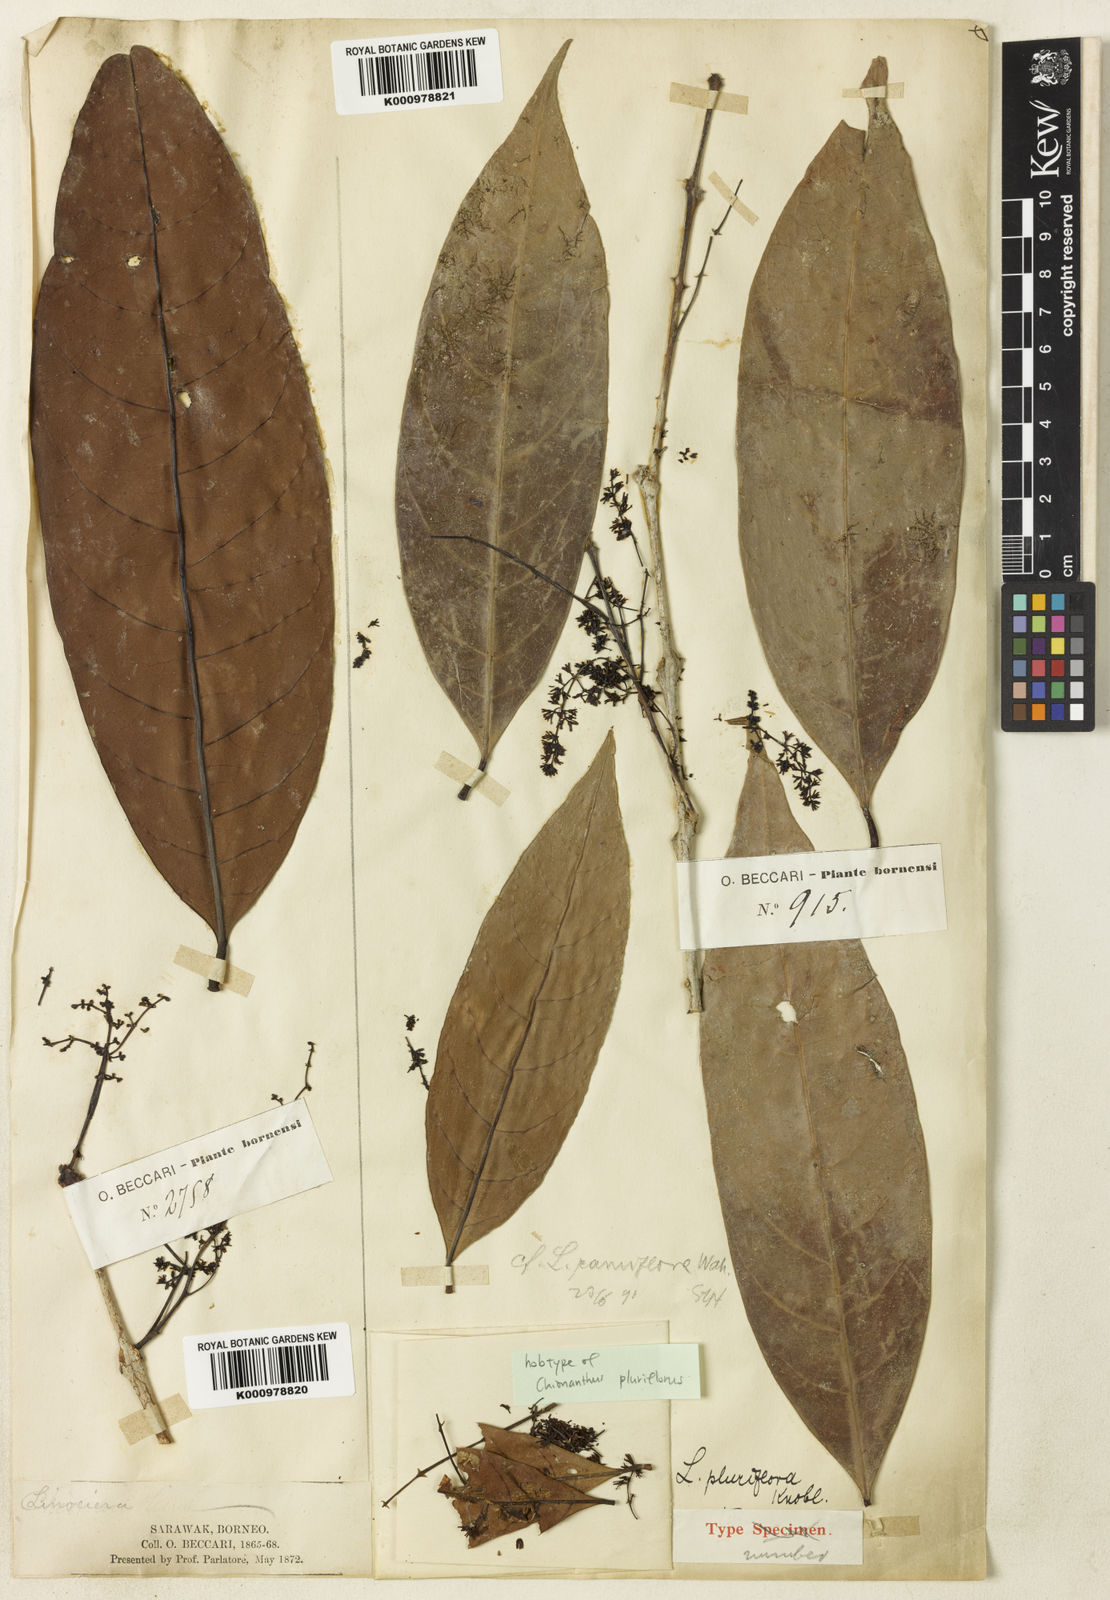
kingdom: Plantae
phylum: Tracheophyta
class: Magnoliopsida
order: Lamiales
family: Oleaceae
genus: Chionanthus
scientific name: Chionanthus pluriflorus
